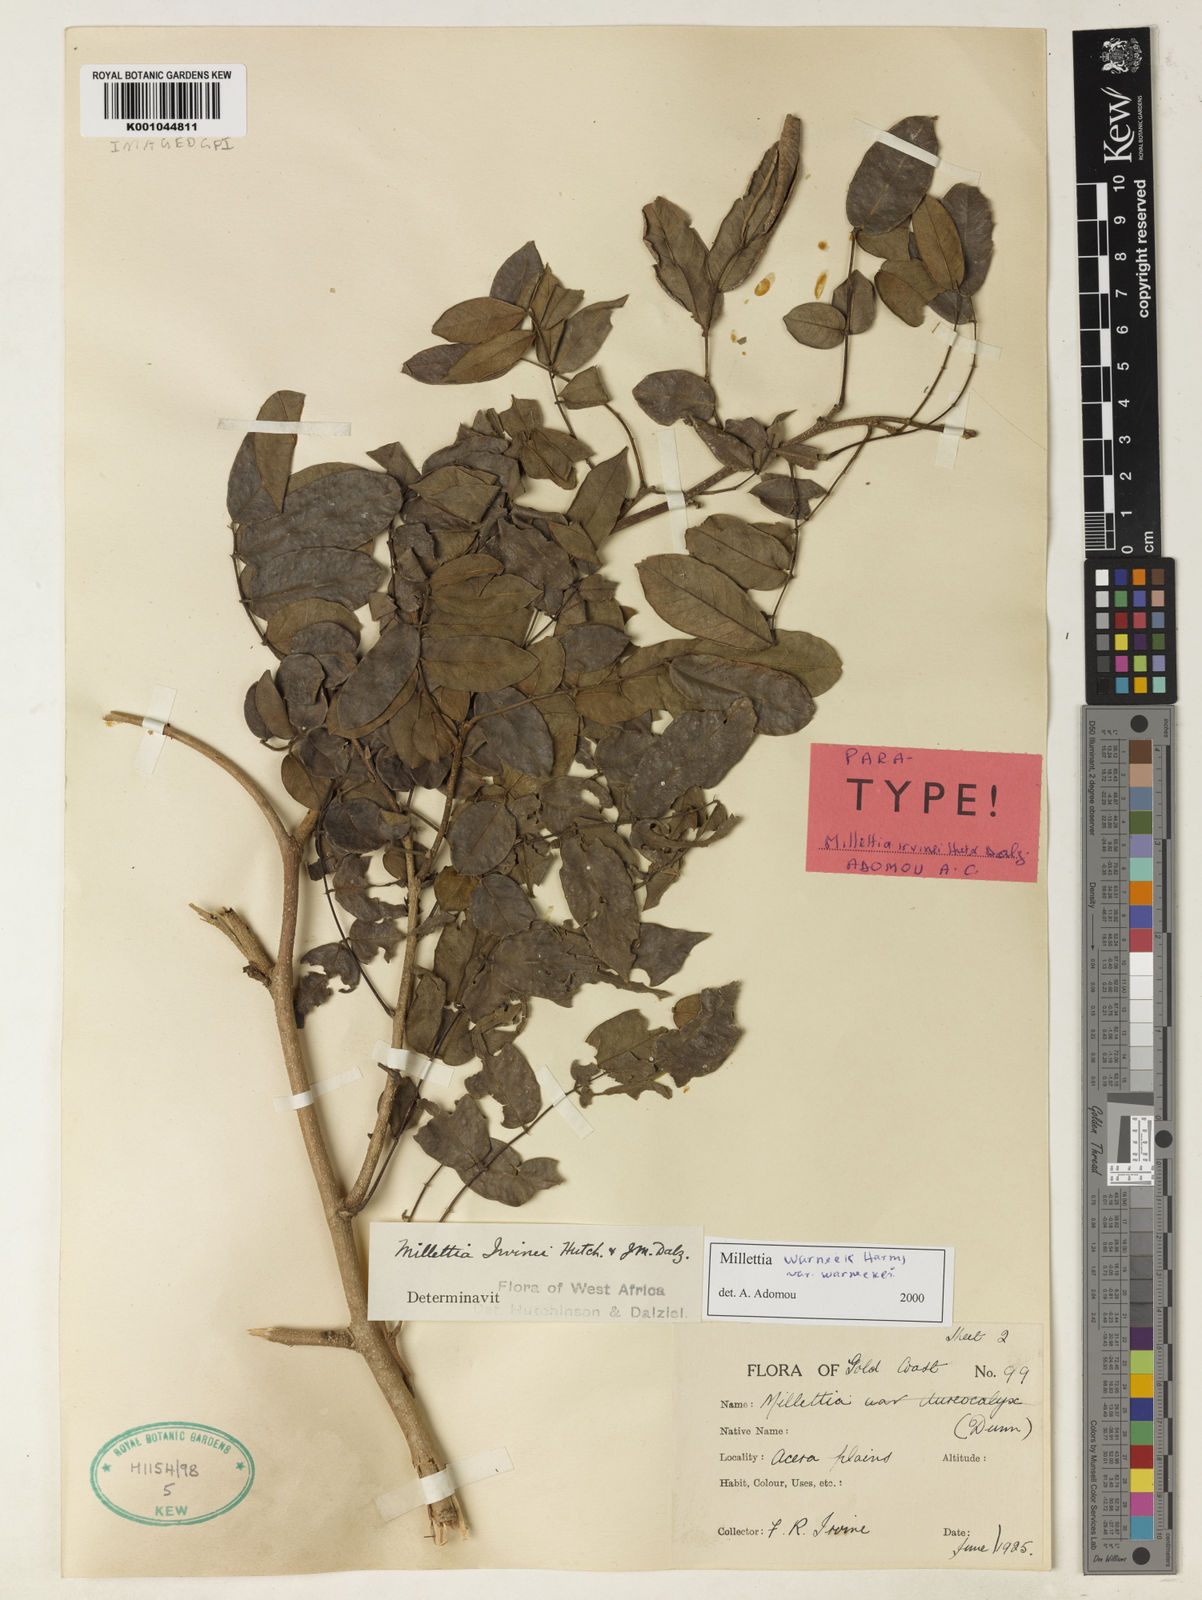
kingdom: Plantae
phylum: Tracheophyta
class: Magnoliopsida
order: Fabales
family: Fabaceae
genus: Millettia
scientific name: Millettia warneckei
